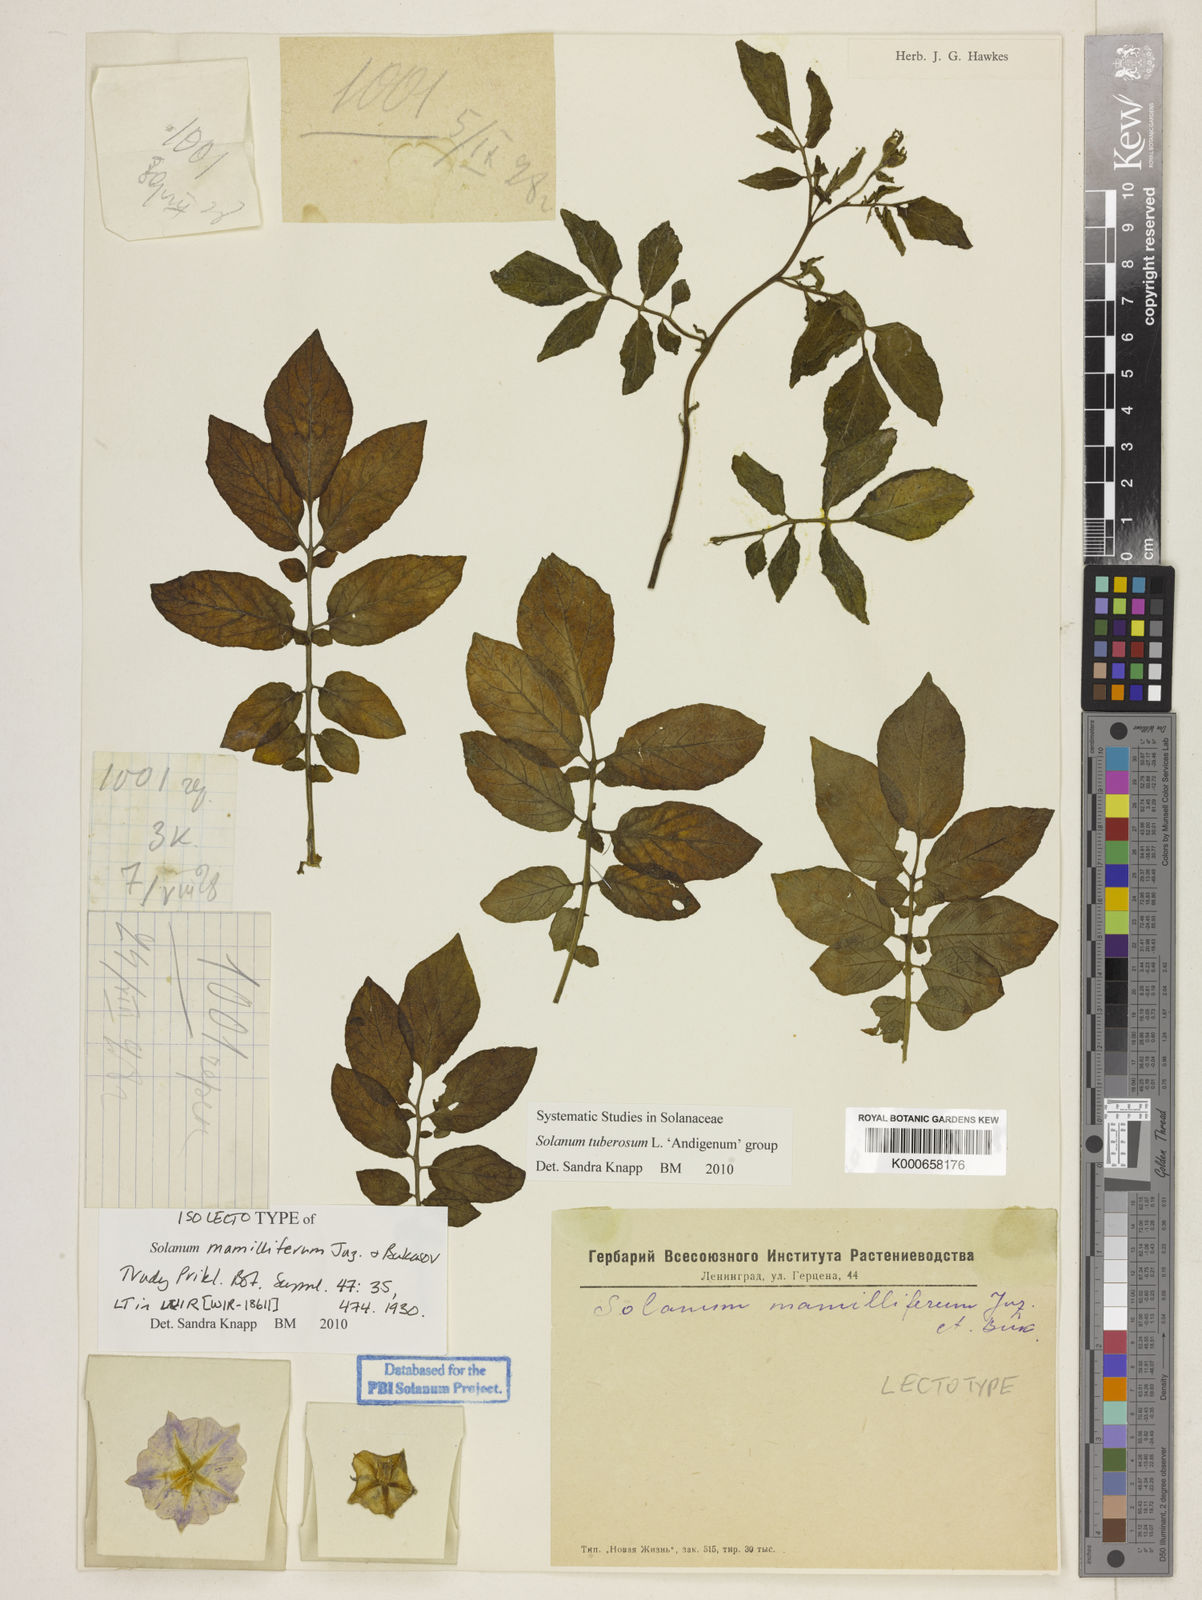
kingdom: Plantae
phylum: Tracheophyta
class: Magnoliopsida
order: Solanales
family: Solanaceae
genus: Solanum
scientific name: Solanum tuberosum
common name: Potato
